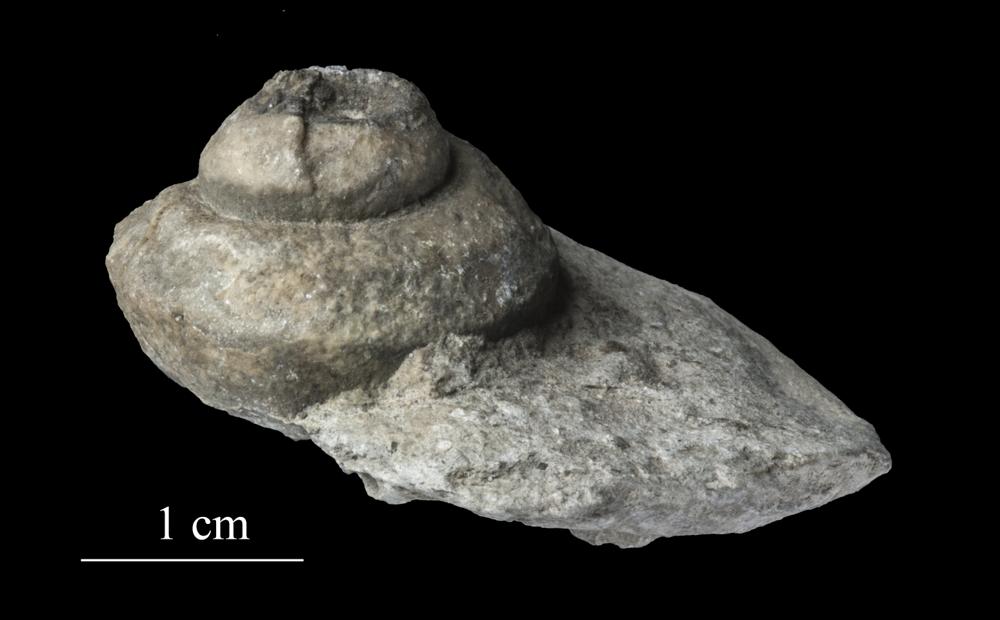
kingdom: Animalia
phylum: Mollusca
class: Gastropoda
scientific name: Gastropoda
